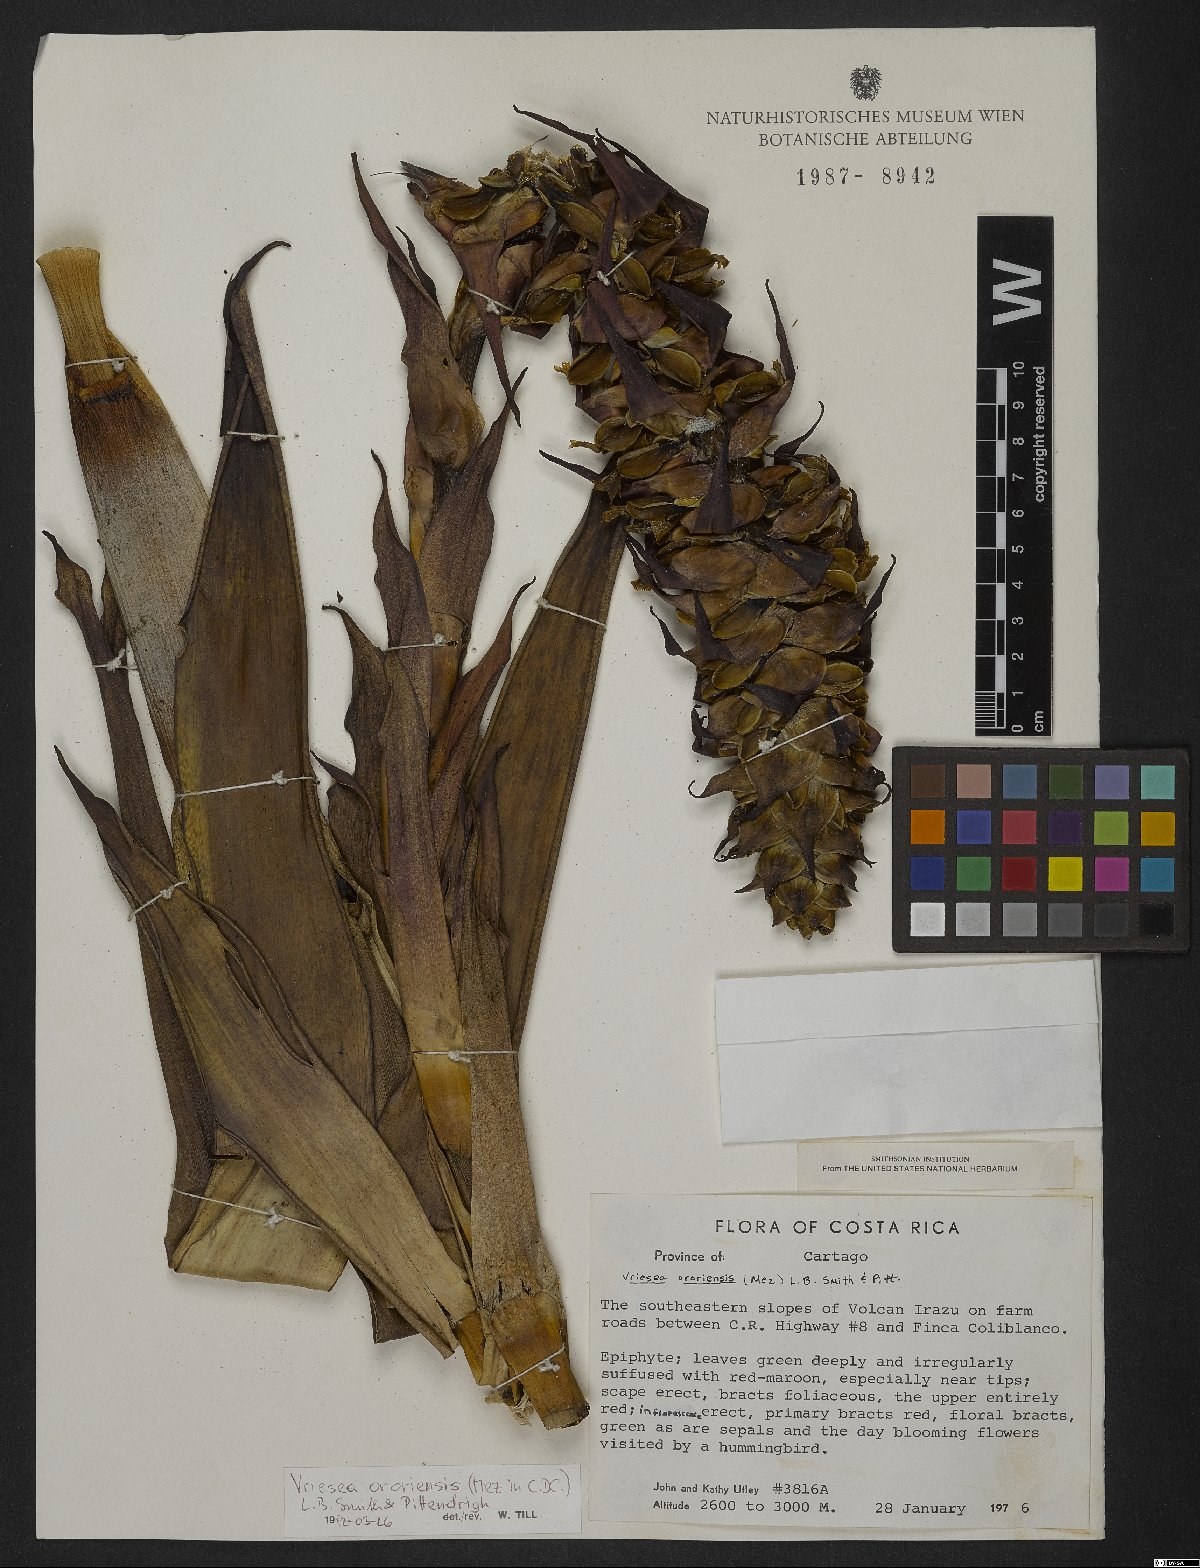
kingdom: Plantae
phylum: Tracheophyta
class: Liliopsida
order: Poales
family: Bromeliaceae
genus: Werauhia
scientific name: Werauhia ororiensis
